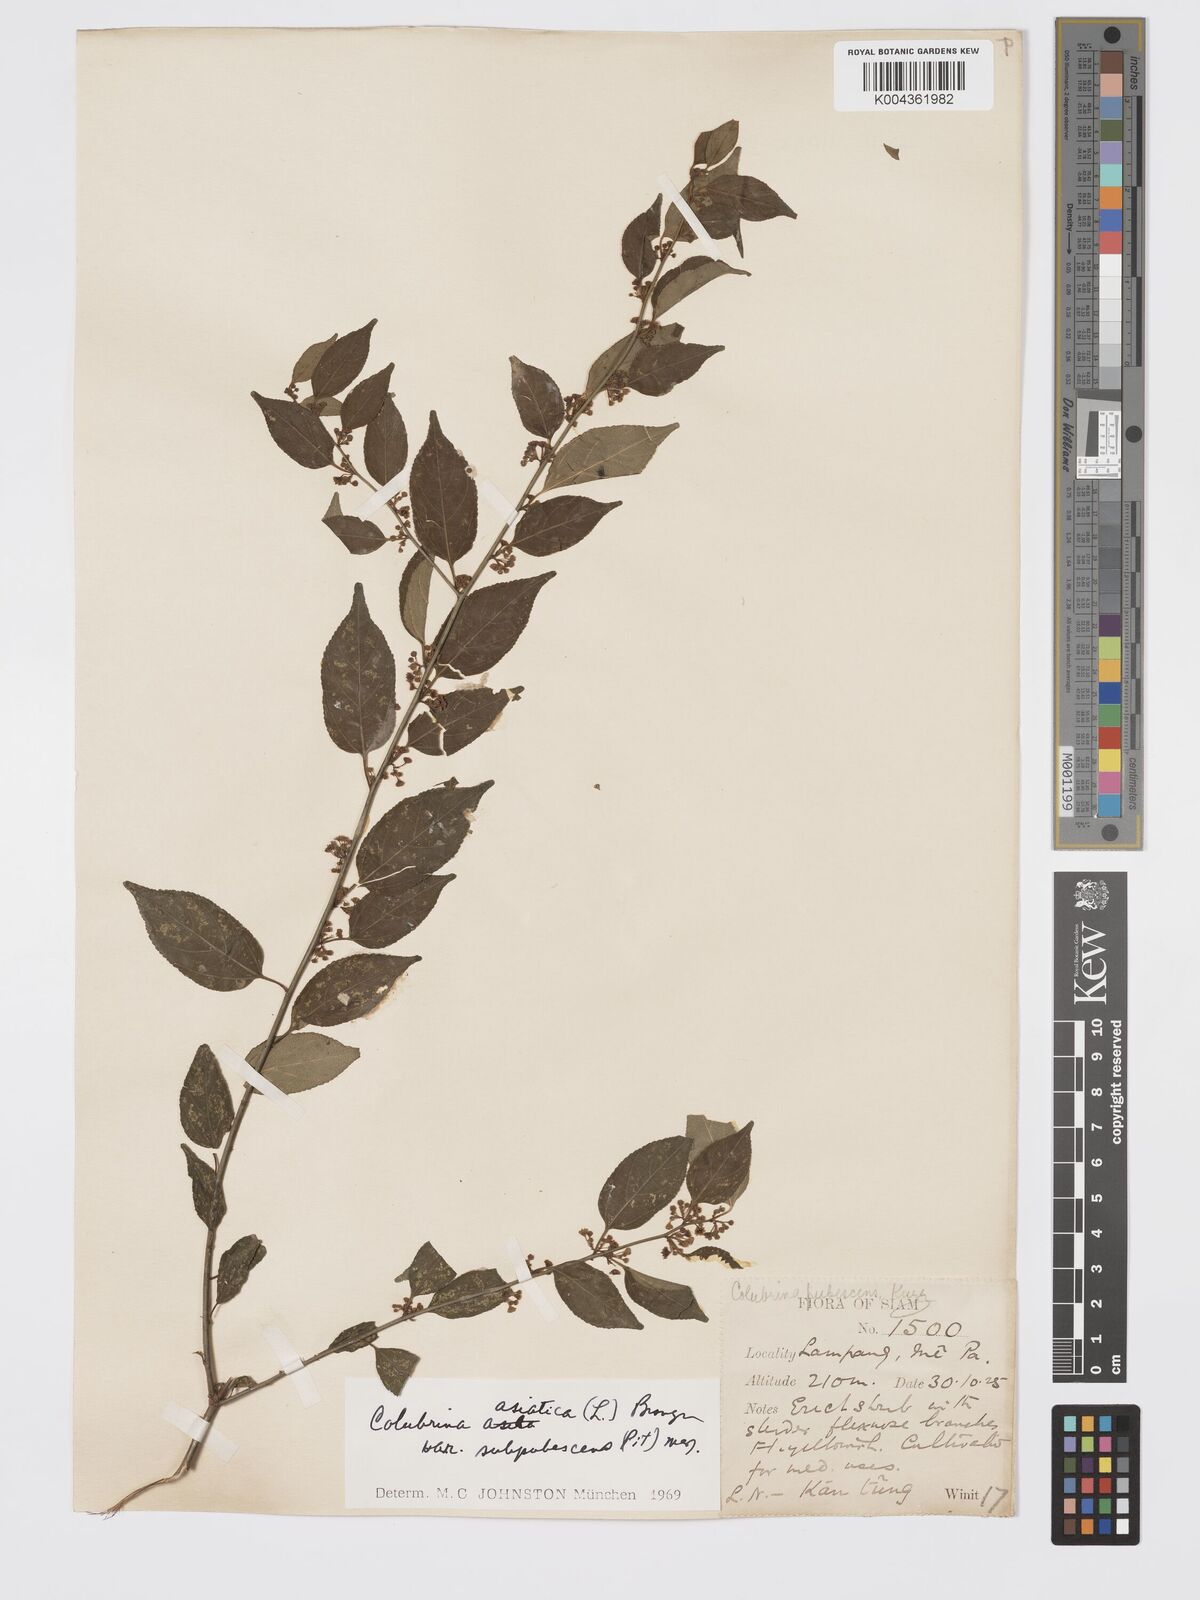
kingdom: Plantae
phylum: Tracheophyta
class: Magnoliopsida
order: Rosales
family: Rhamnaceae
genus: Colubrina
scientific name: Colubrina javanica
